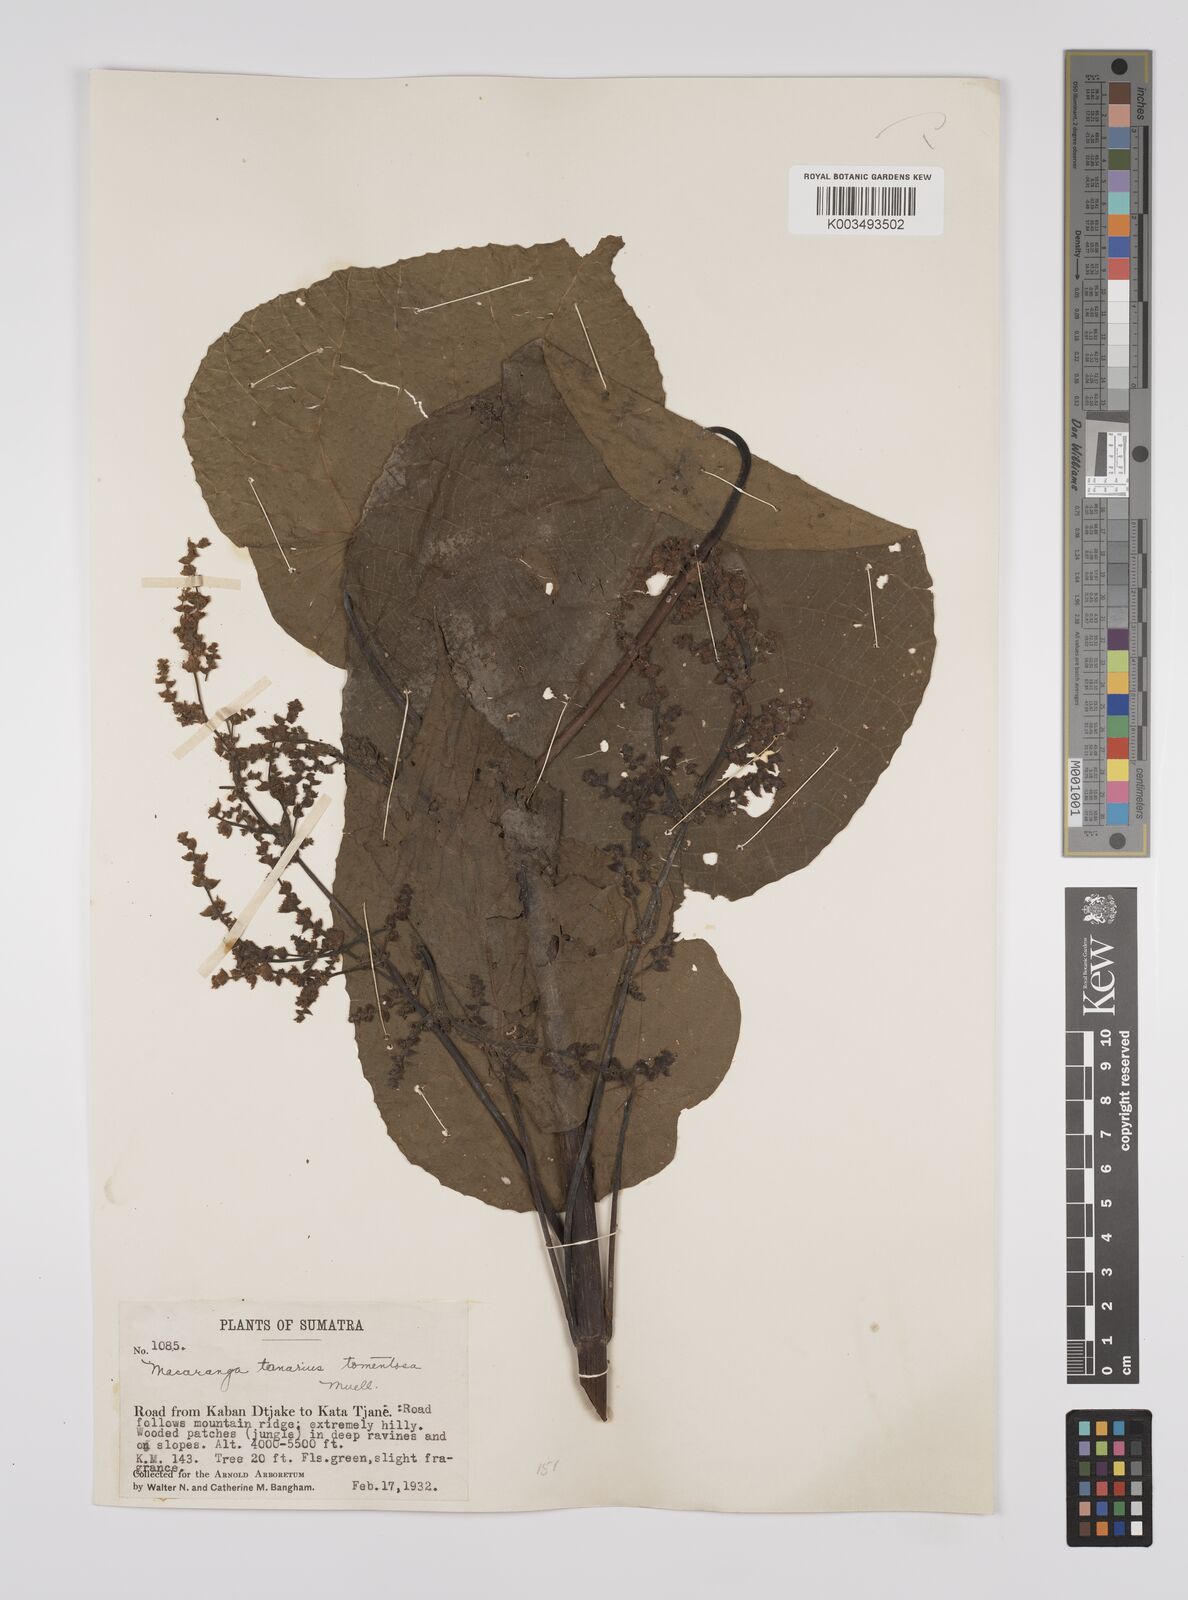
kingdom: Plantae
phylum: Tracheophyta
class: Magnoliopsida
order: Malpighiales
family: Euphorbiaceae
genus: Macaranga
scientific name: Macaranga tanarius
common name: Parasol leaf tree
